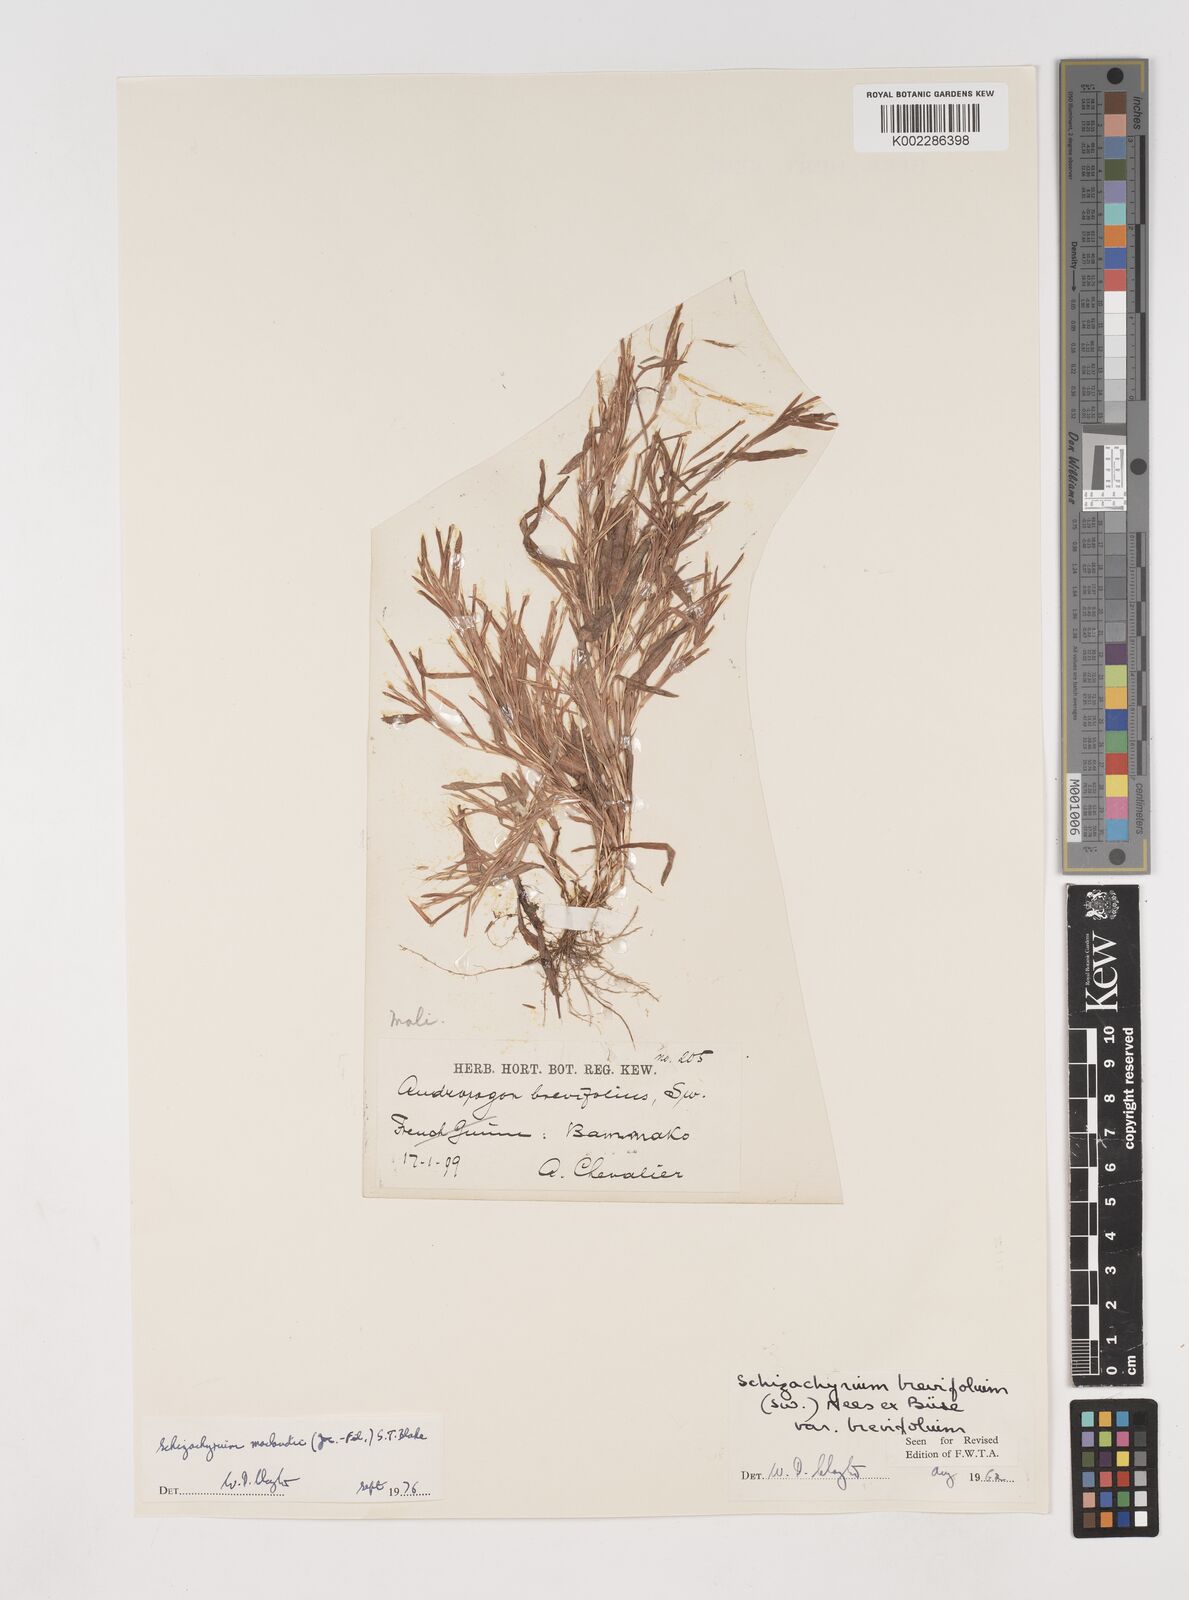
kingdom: Plantae
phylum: Tracheophyta
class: Liliopsida
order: Poales
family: Poaceae
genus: Schizachyrium
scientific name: Schizachyrium maclaudii
